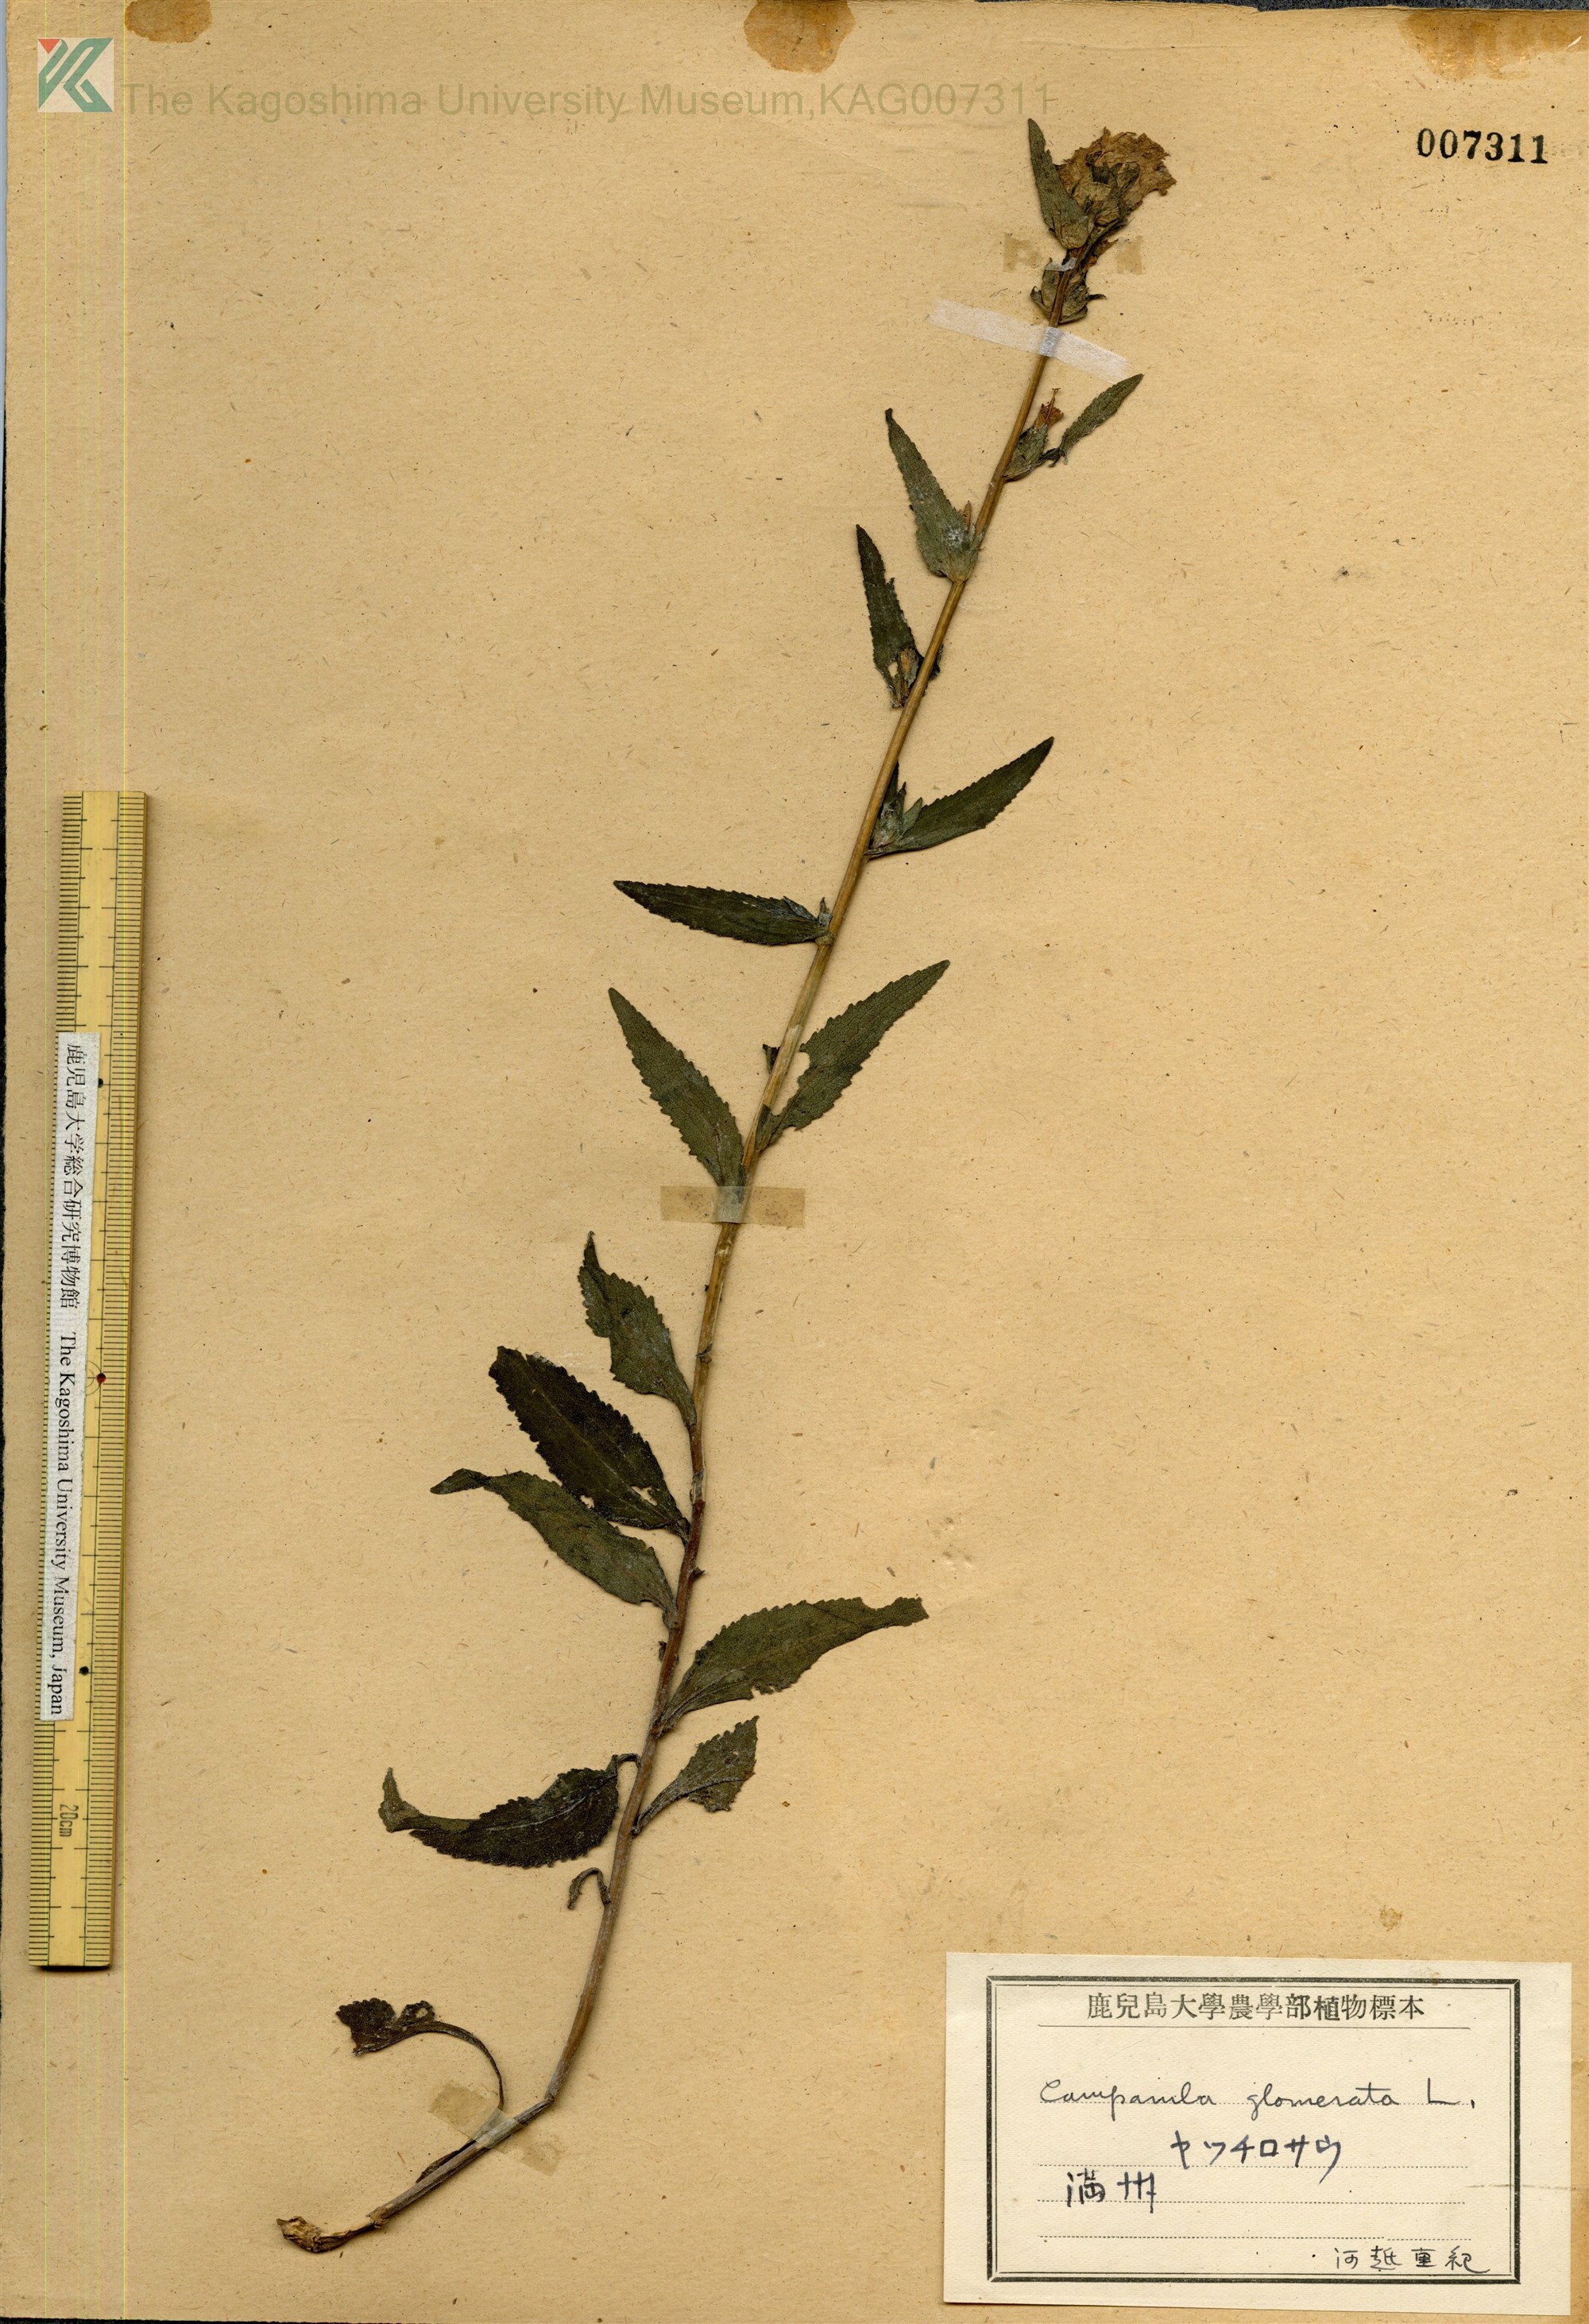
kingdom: Plantae
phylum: Tracheophyta
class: Magnoliopsida
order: Asterales
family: Campanulaceae
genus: Campanula
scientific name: Campanula glomerata
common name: Clustered bellflower
